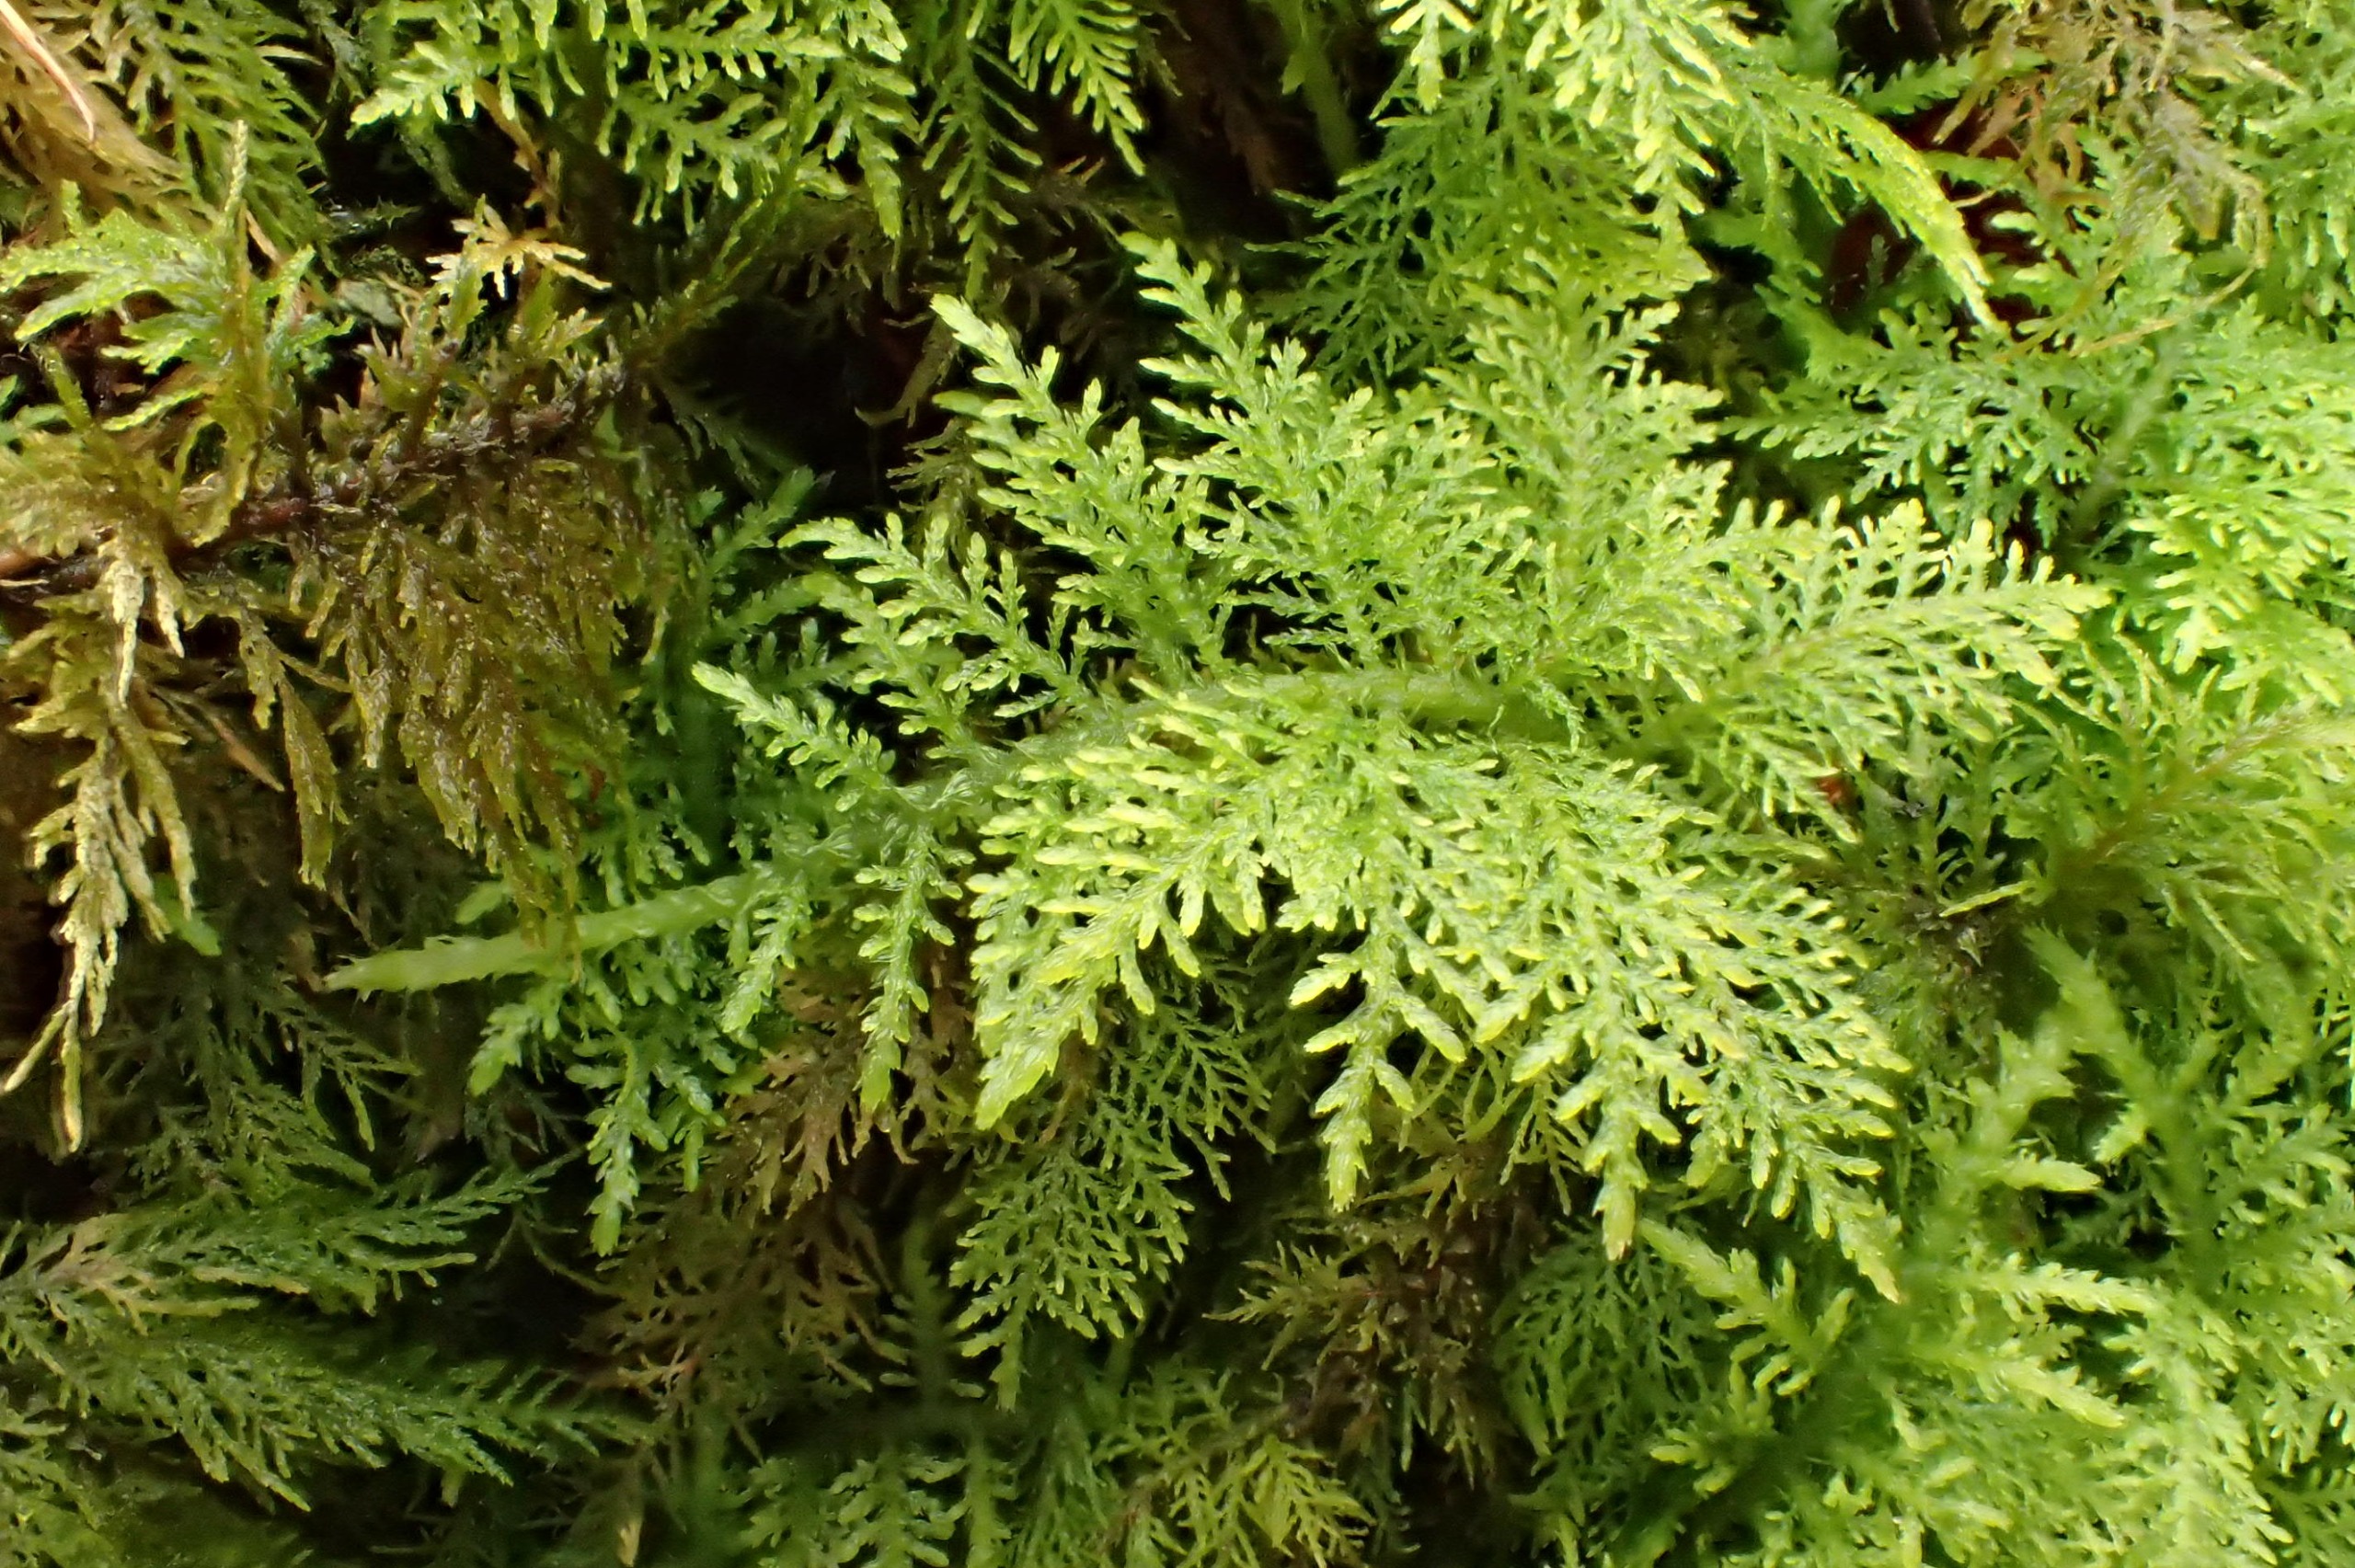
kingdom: Plantae
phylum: Bryophyta
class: Bryopsida
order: Hypnales
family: Thuidiaceae
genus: Thuidium
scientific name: Thuidium tamariscinum
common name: Pryd-bregnemos
